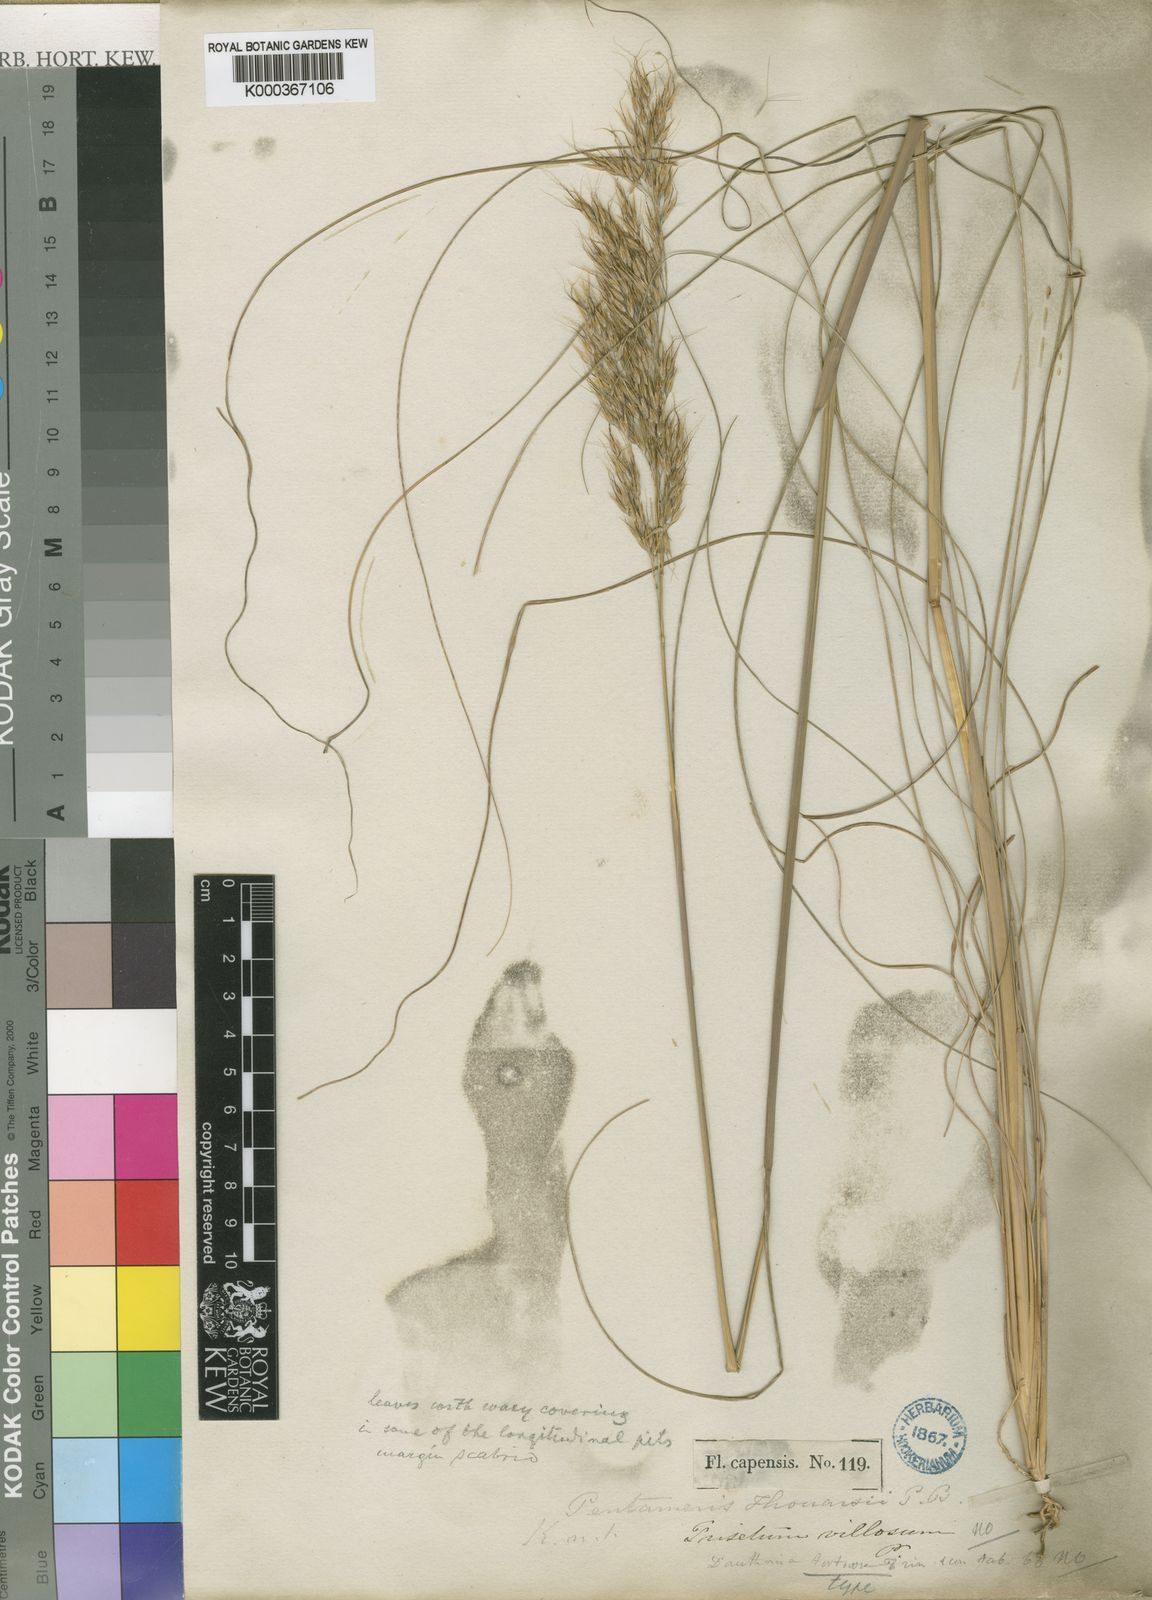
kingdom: Plantae
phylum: Tracheophyta
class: Liliopsida
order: Poales
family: Poaceae
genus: Pentameris
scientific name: Pentameris tortuosa
